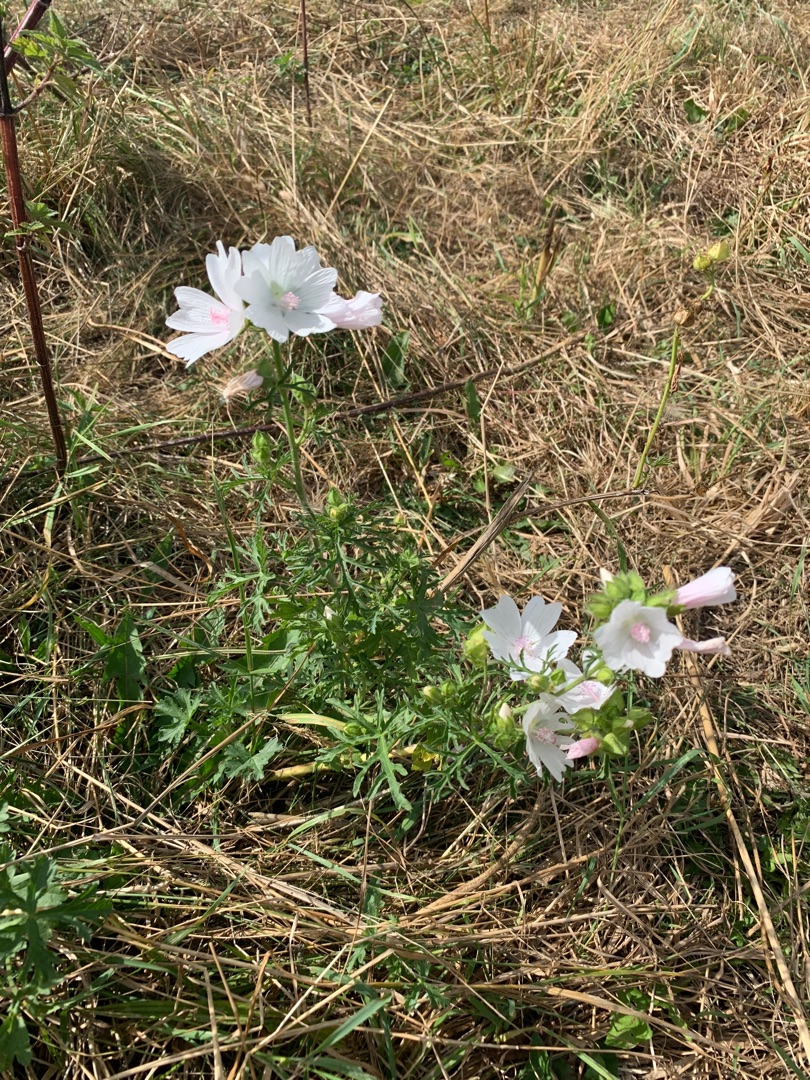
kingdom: Plantae
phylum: Tracheophyta
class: Magnoliopsida
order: Malvales
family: Malvaceae
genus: Malva
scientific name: Malva moschata
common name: Moskus-katost
